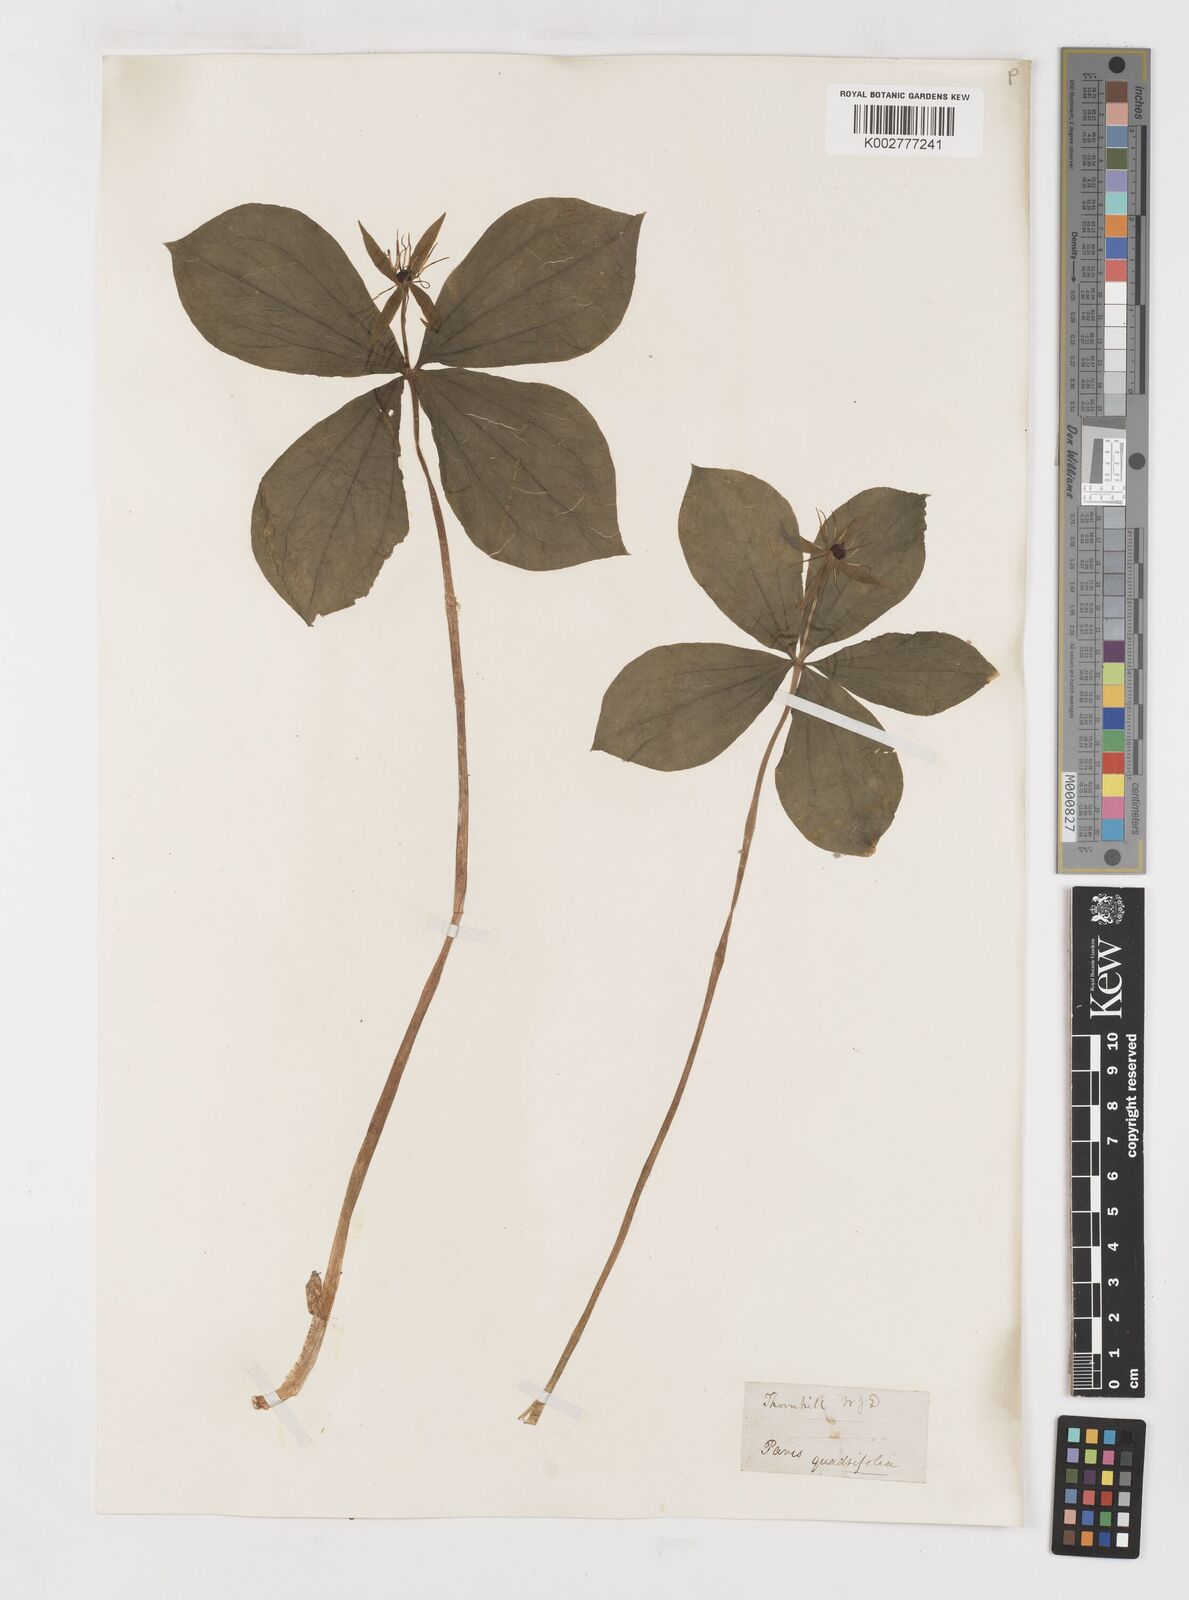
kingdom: Plantae
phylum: Tracheophyta
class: Liliopsida
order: Liliales
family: Melanthiaceae
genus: Paris
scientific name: Paris
